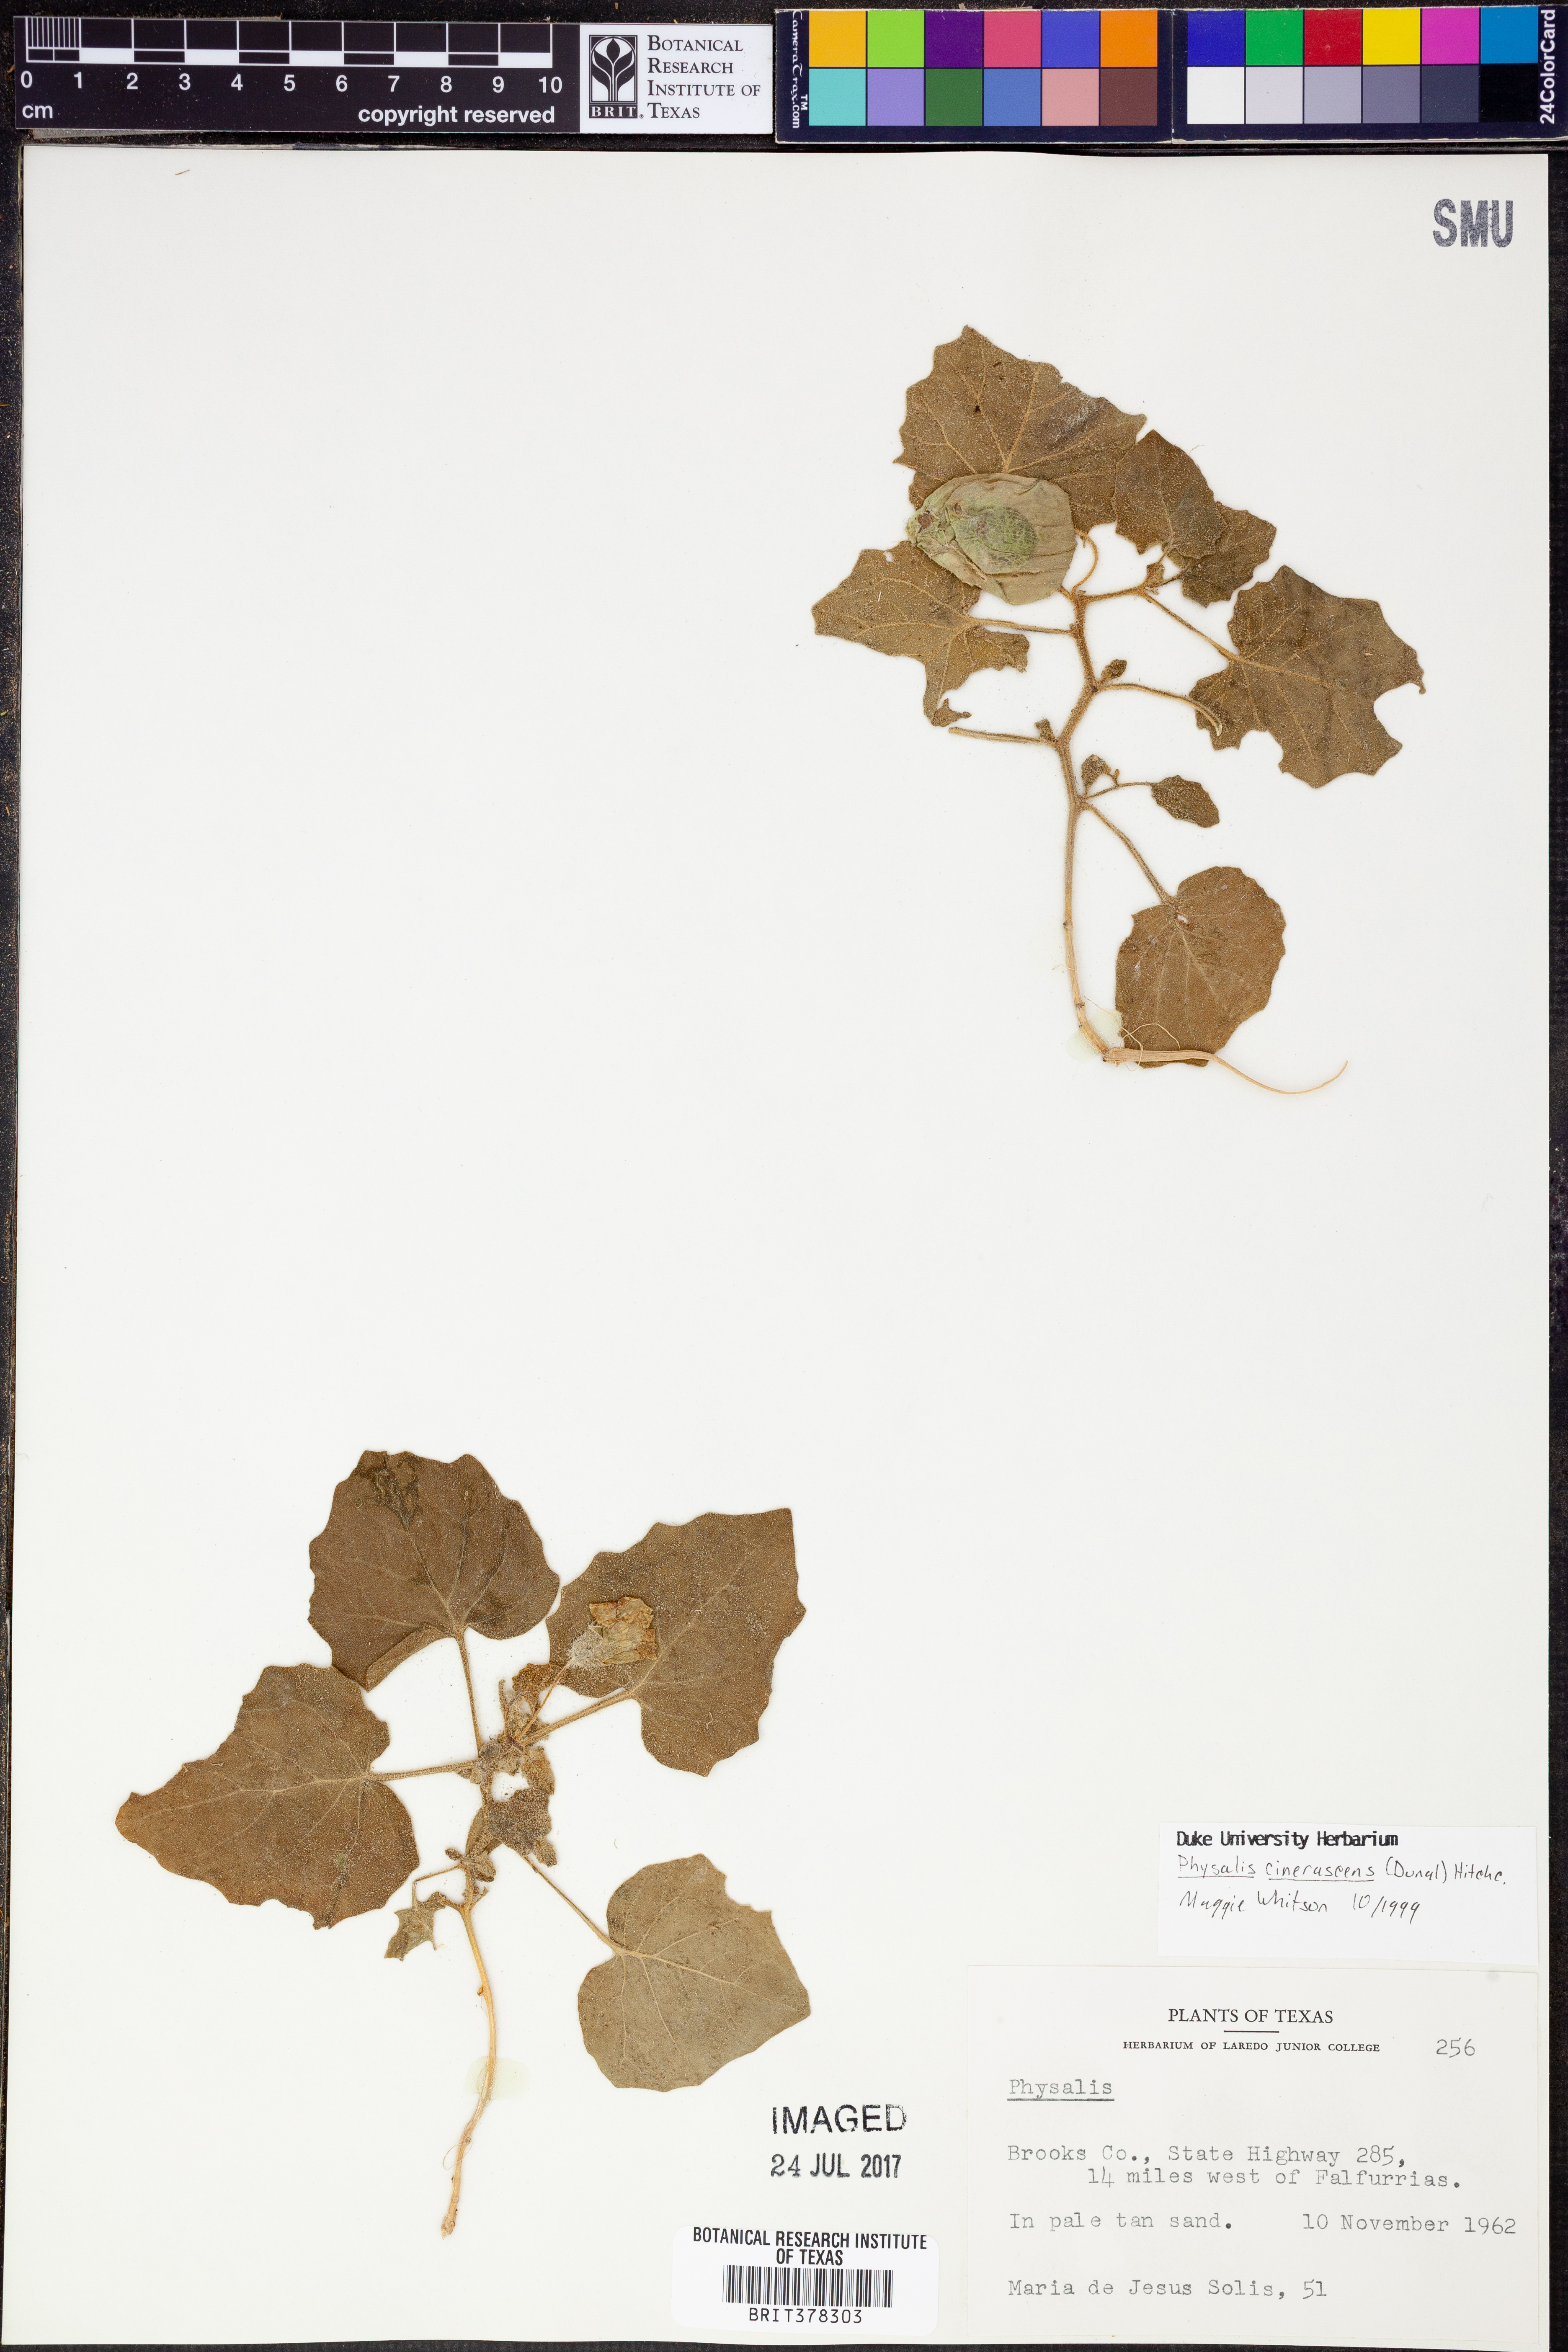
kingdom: Plantae
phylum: Tracheophyta
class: Magnoliopsida
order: Solanales
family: Solanaceae
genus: Physalis
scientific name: Physalis cinerascens
